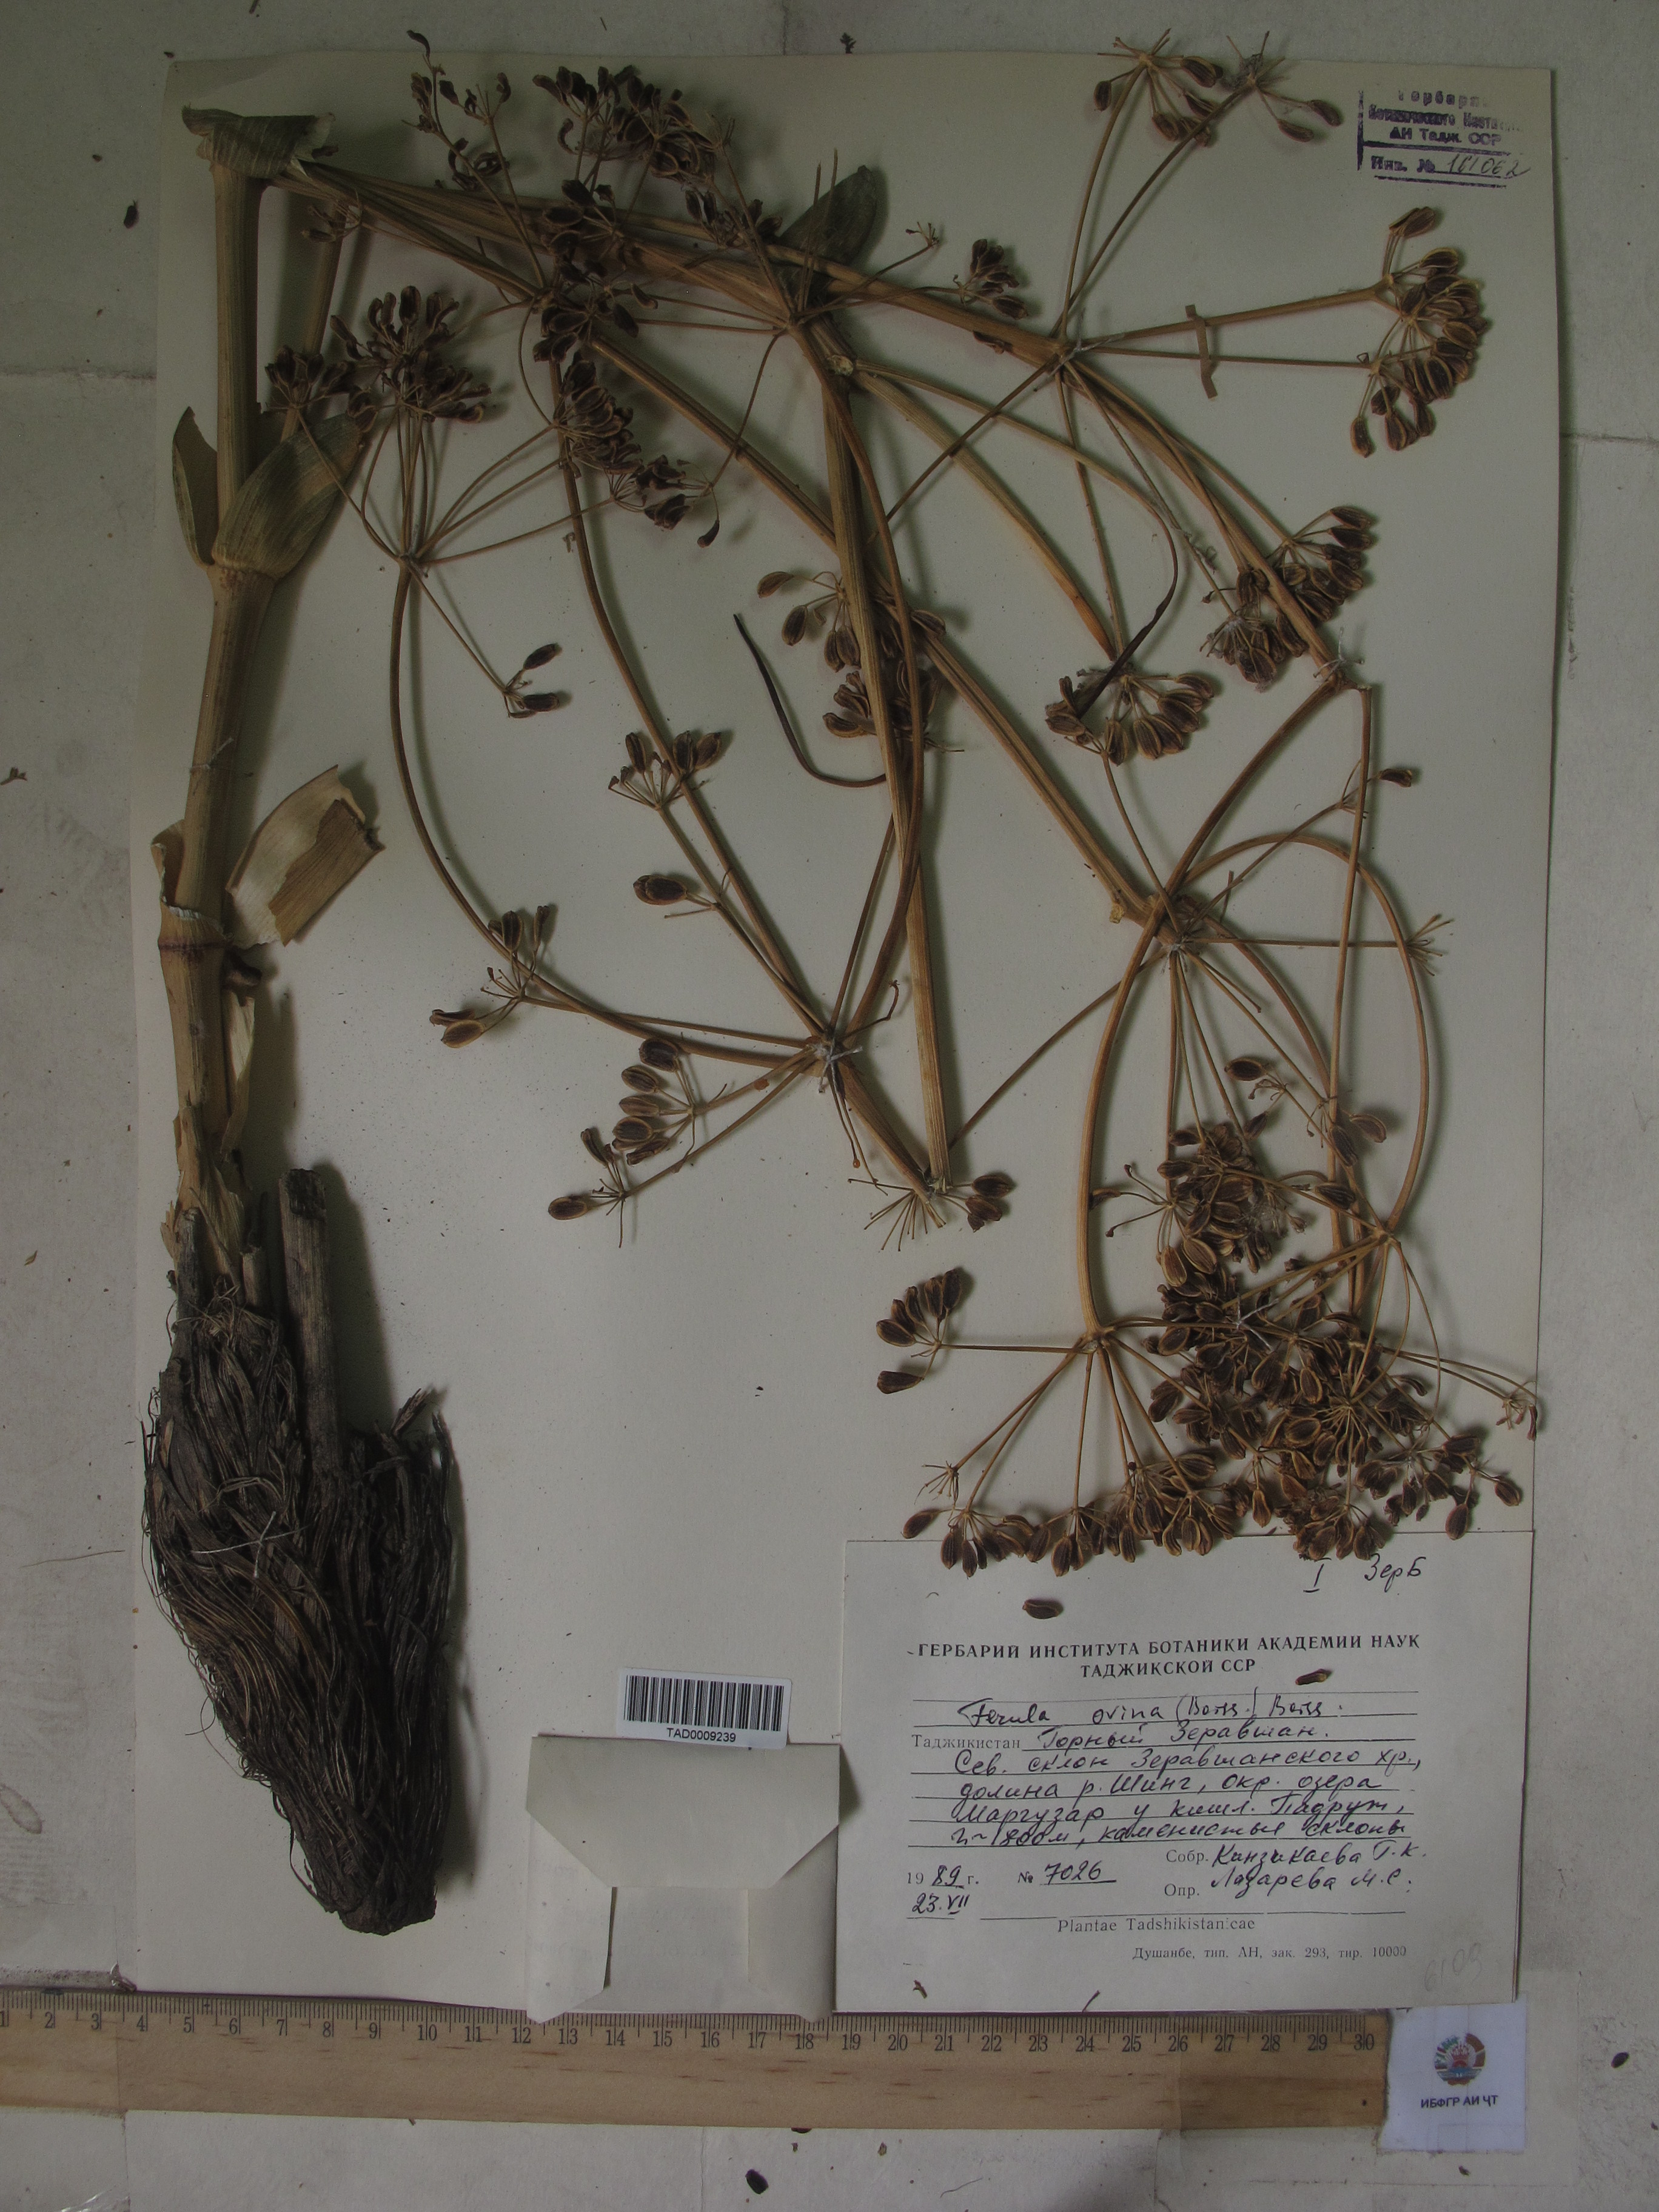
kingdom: Plantae
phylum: Tracheophyta
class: Magnoliopsida
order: Apiales
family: Apiaceae
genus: Ferula
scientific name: Ferula ovina
